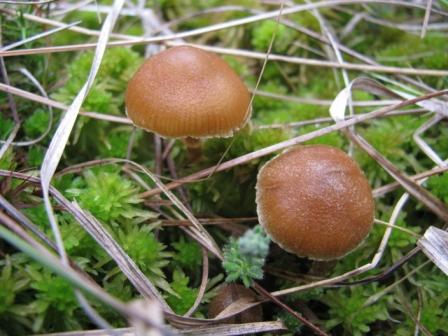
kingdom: Fungi
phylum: Basidiomycota
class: Agaricomycetes
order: Agaricales
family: Hymenogastraceae
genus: Galerina
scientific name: Galerina paludosa
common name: mose-hjelmhat
